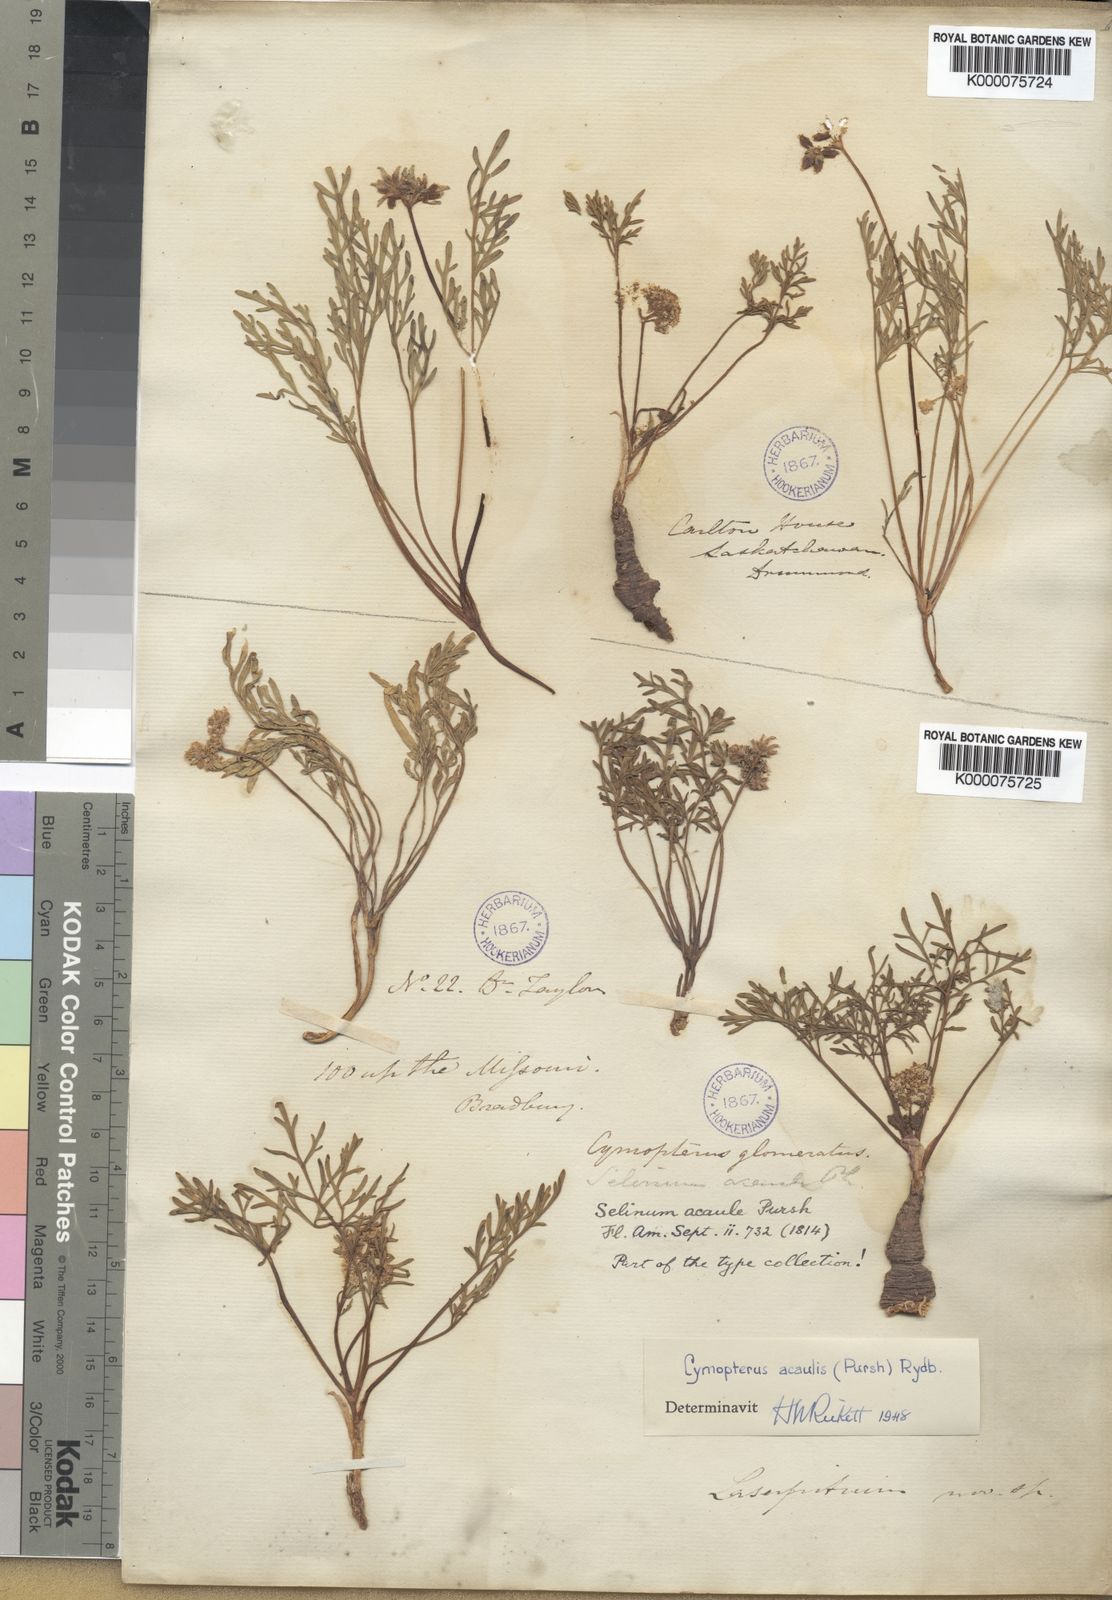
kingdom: Plantae
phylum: Tracheophyta
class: Magnoliopsida
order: Apiales
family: Apiaceae
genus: Cymopterus
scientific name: Cymopterus
